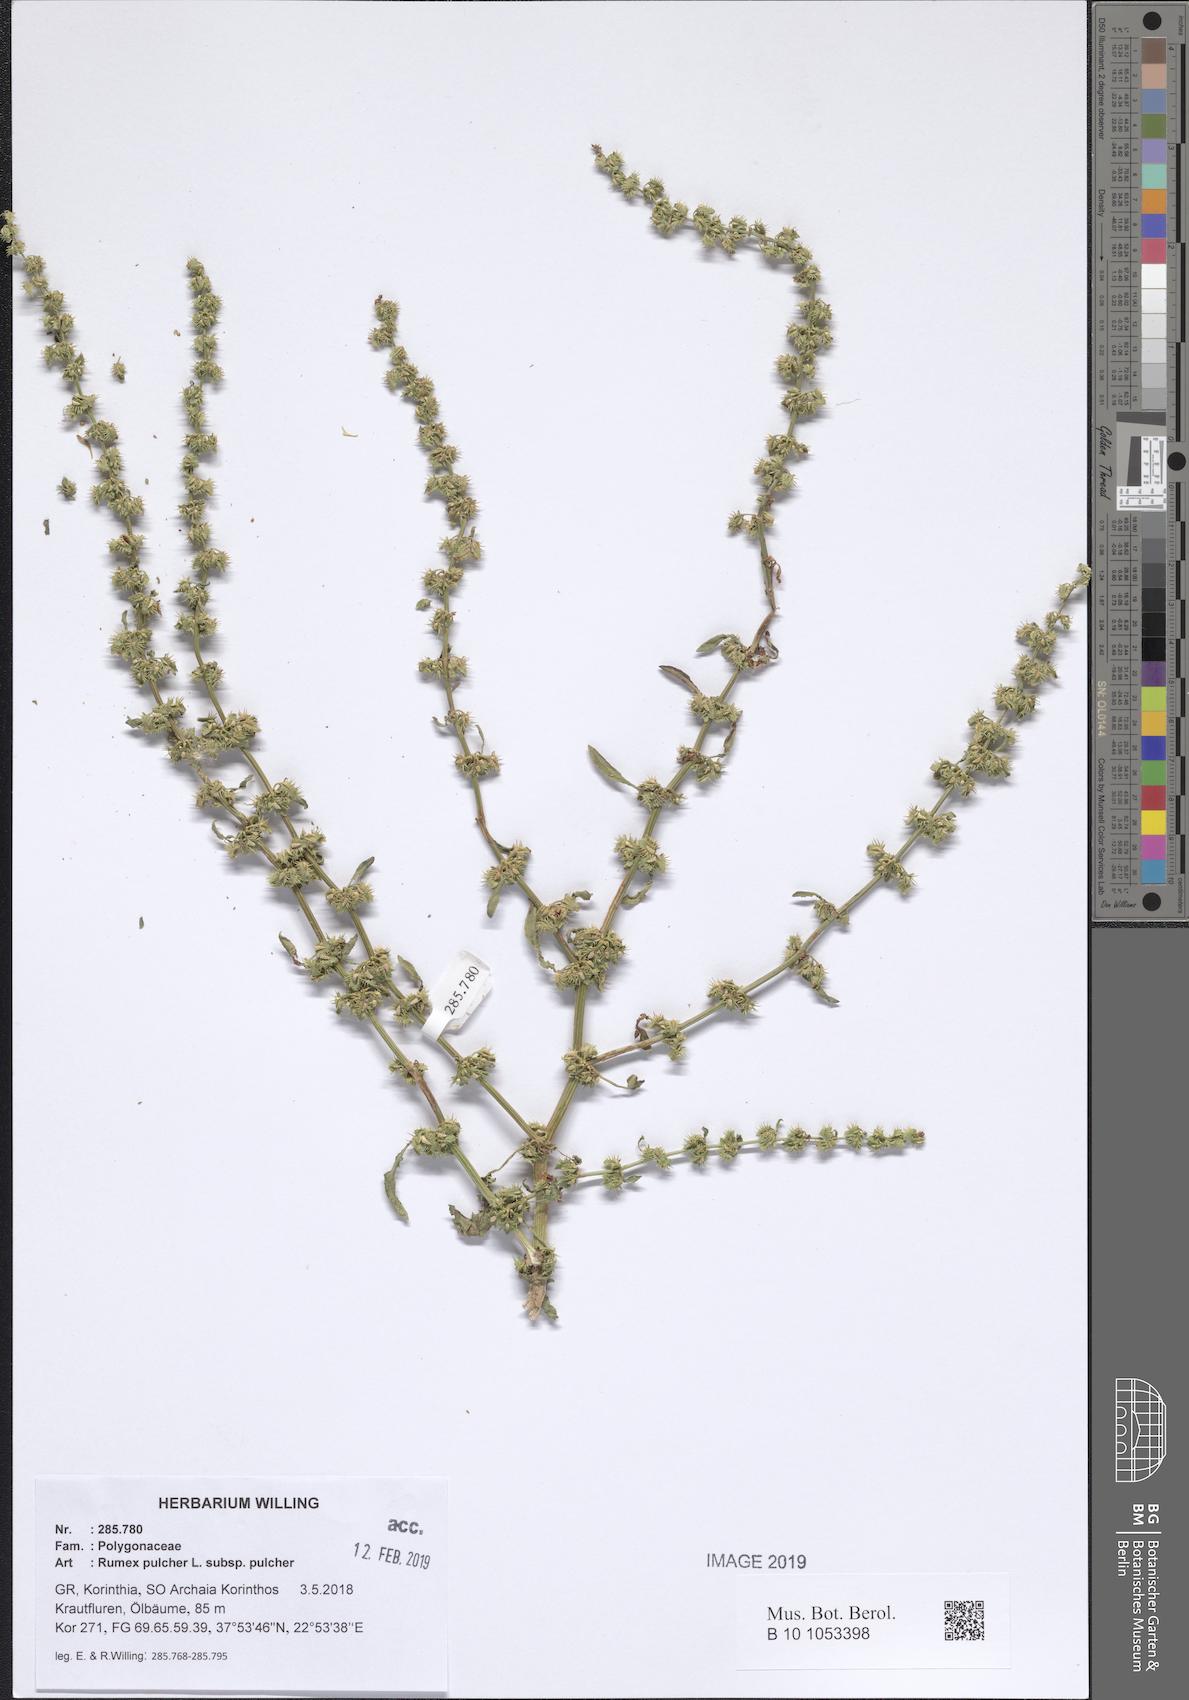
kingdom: Plantae
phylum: Tracheophyta
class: Magnoliopsida
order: Caryophyllales
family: Polygonaceae
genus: Rumex
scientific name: Rumex pulcher
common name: Fiddle dock
